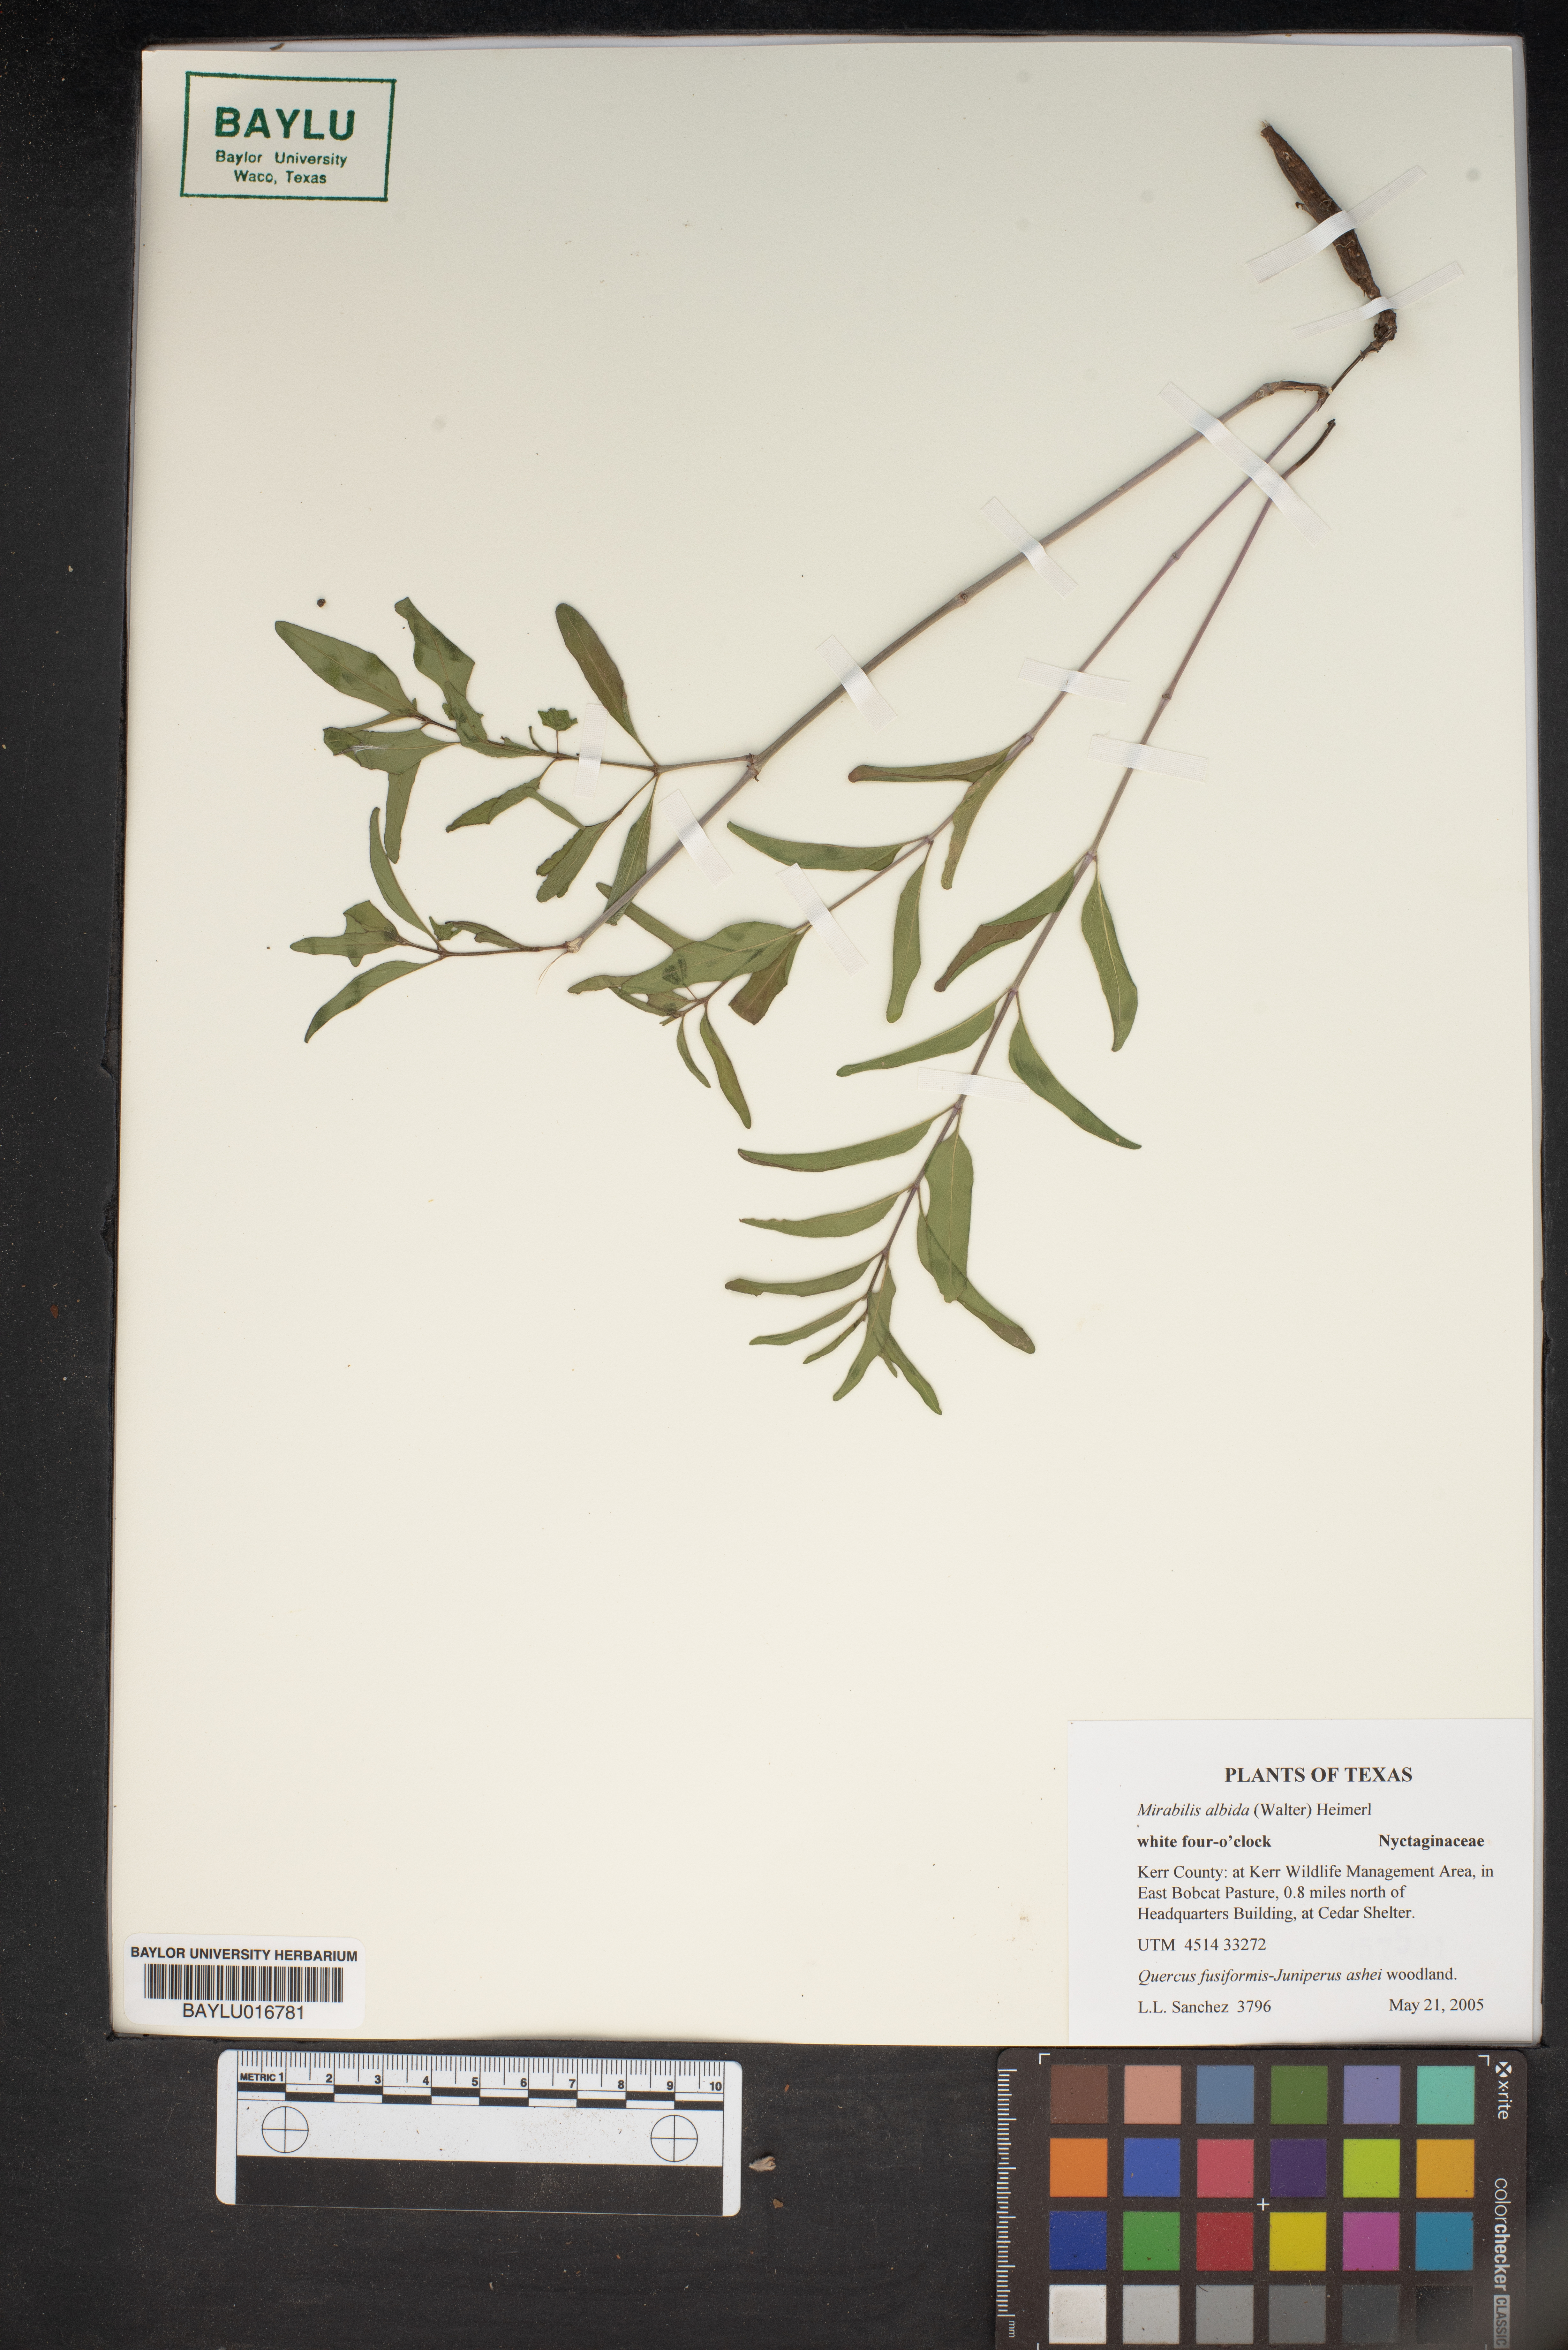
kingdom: Plantae
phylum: Tracheophyta
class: Magnoliopsida
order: Caryophyllales
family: Nyctaginaceae
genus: Mirabilis
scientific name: Mirabilis albida
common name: Hairy four-o'clock
